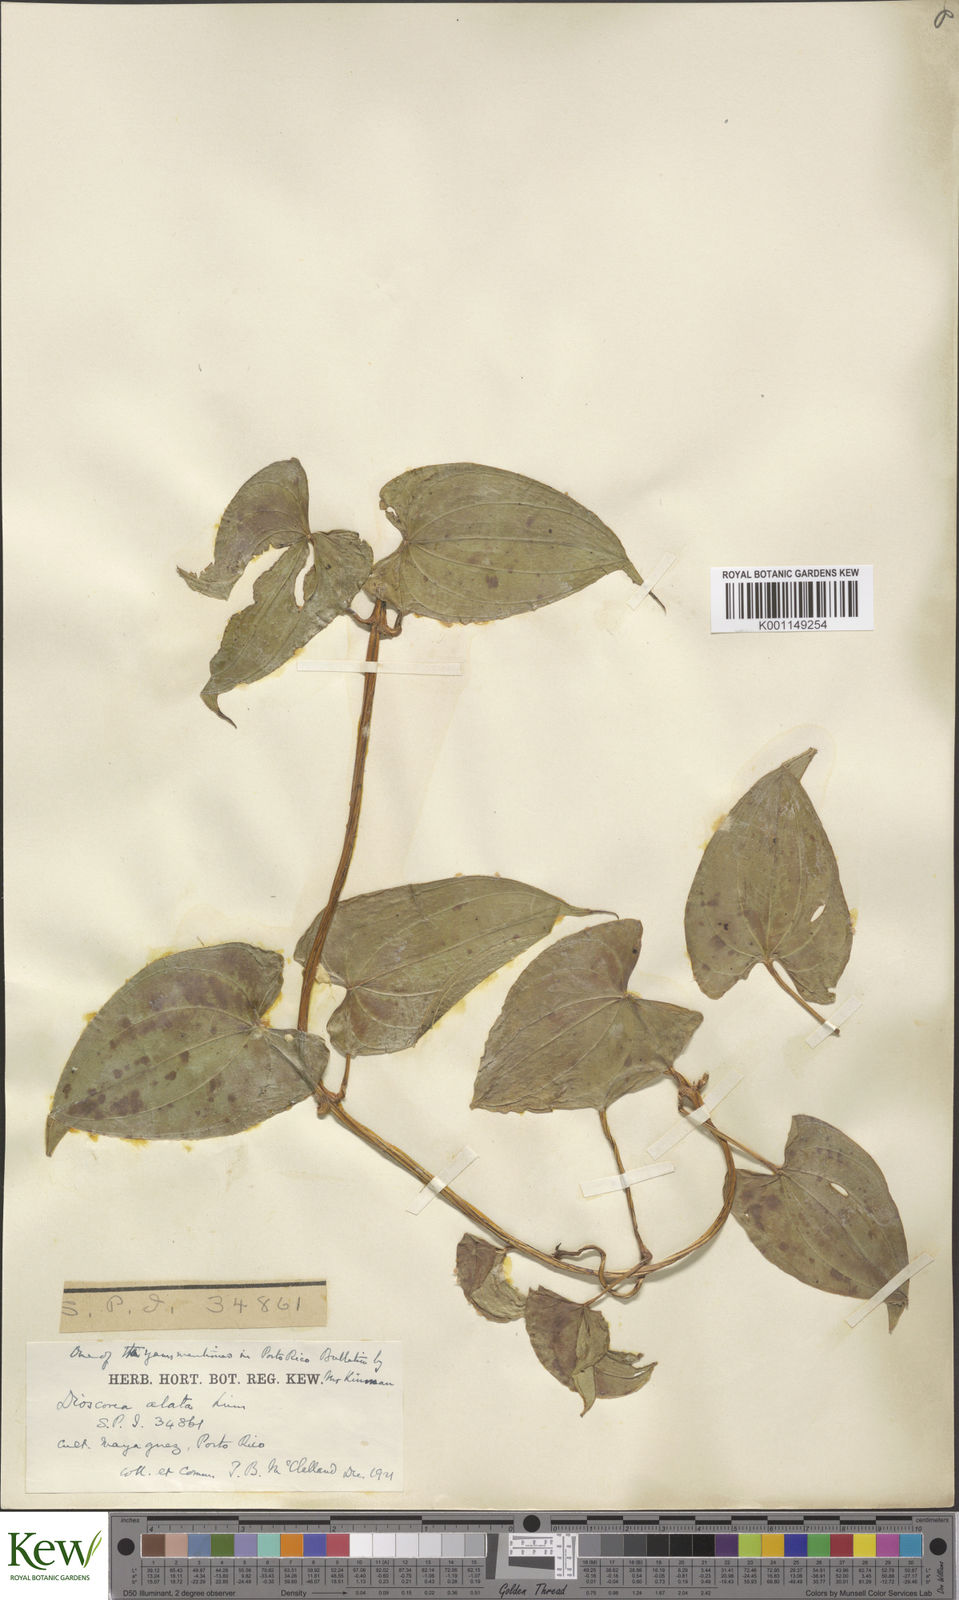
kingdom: Plantae
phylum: Tracheophyta
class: Liliopsida
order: Dioscoreales
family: Dioscoreaceae
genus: Dioscorea
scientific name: Dioscorea alata
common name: Water yam
